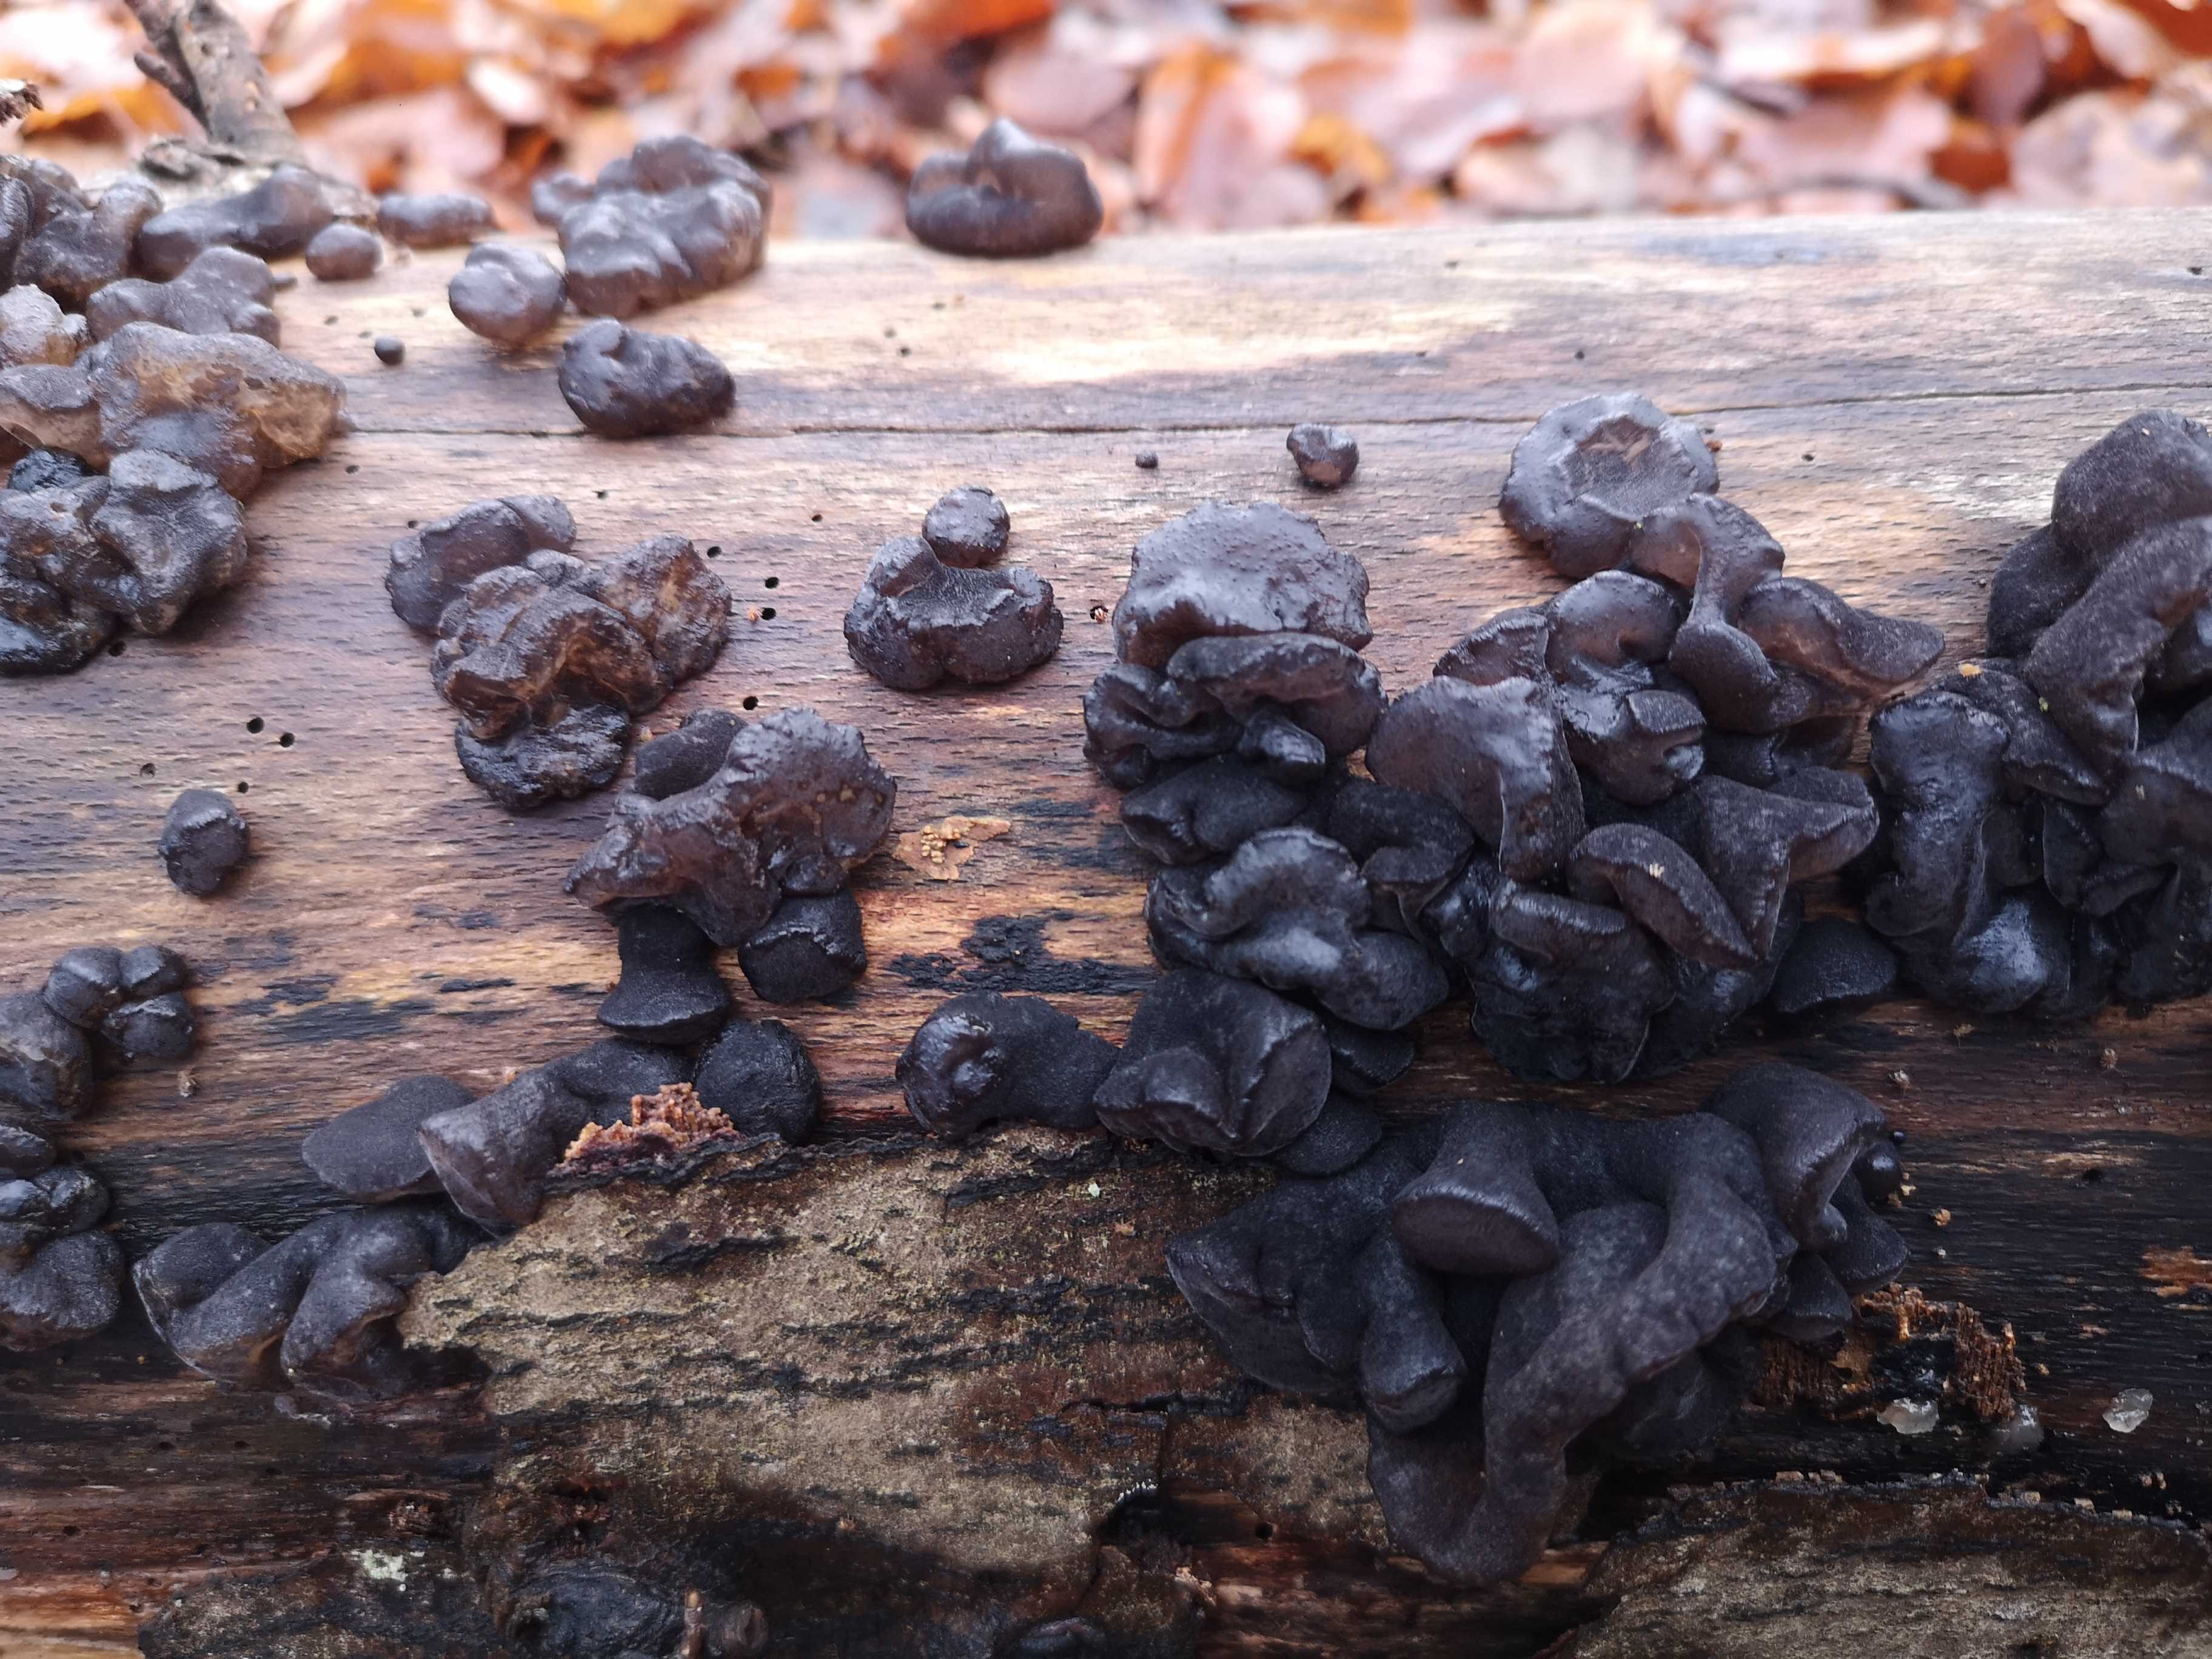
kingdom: Fungi
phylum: Ascomycota
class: Leotiomycetes
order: Phacidiales
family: Phacidiaceae
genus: Bulgaria
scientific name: Bulgaria inquinans
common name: afsmittende topsvamp
